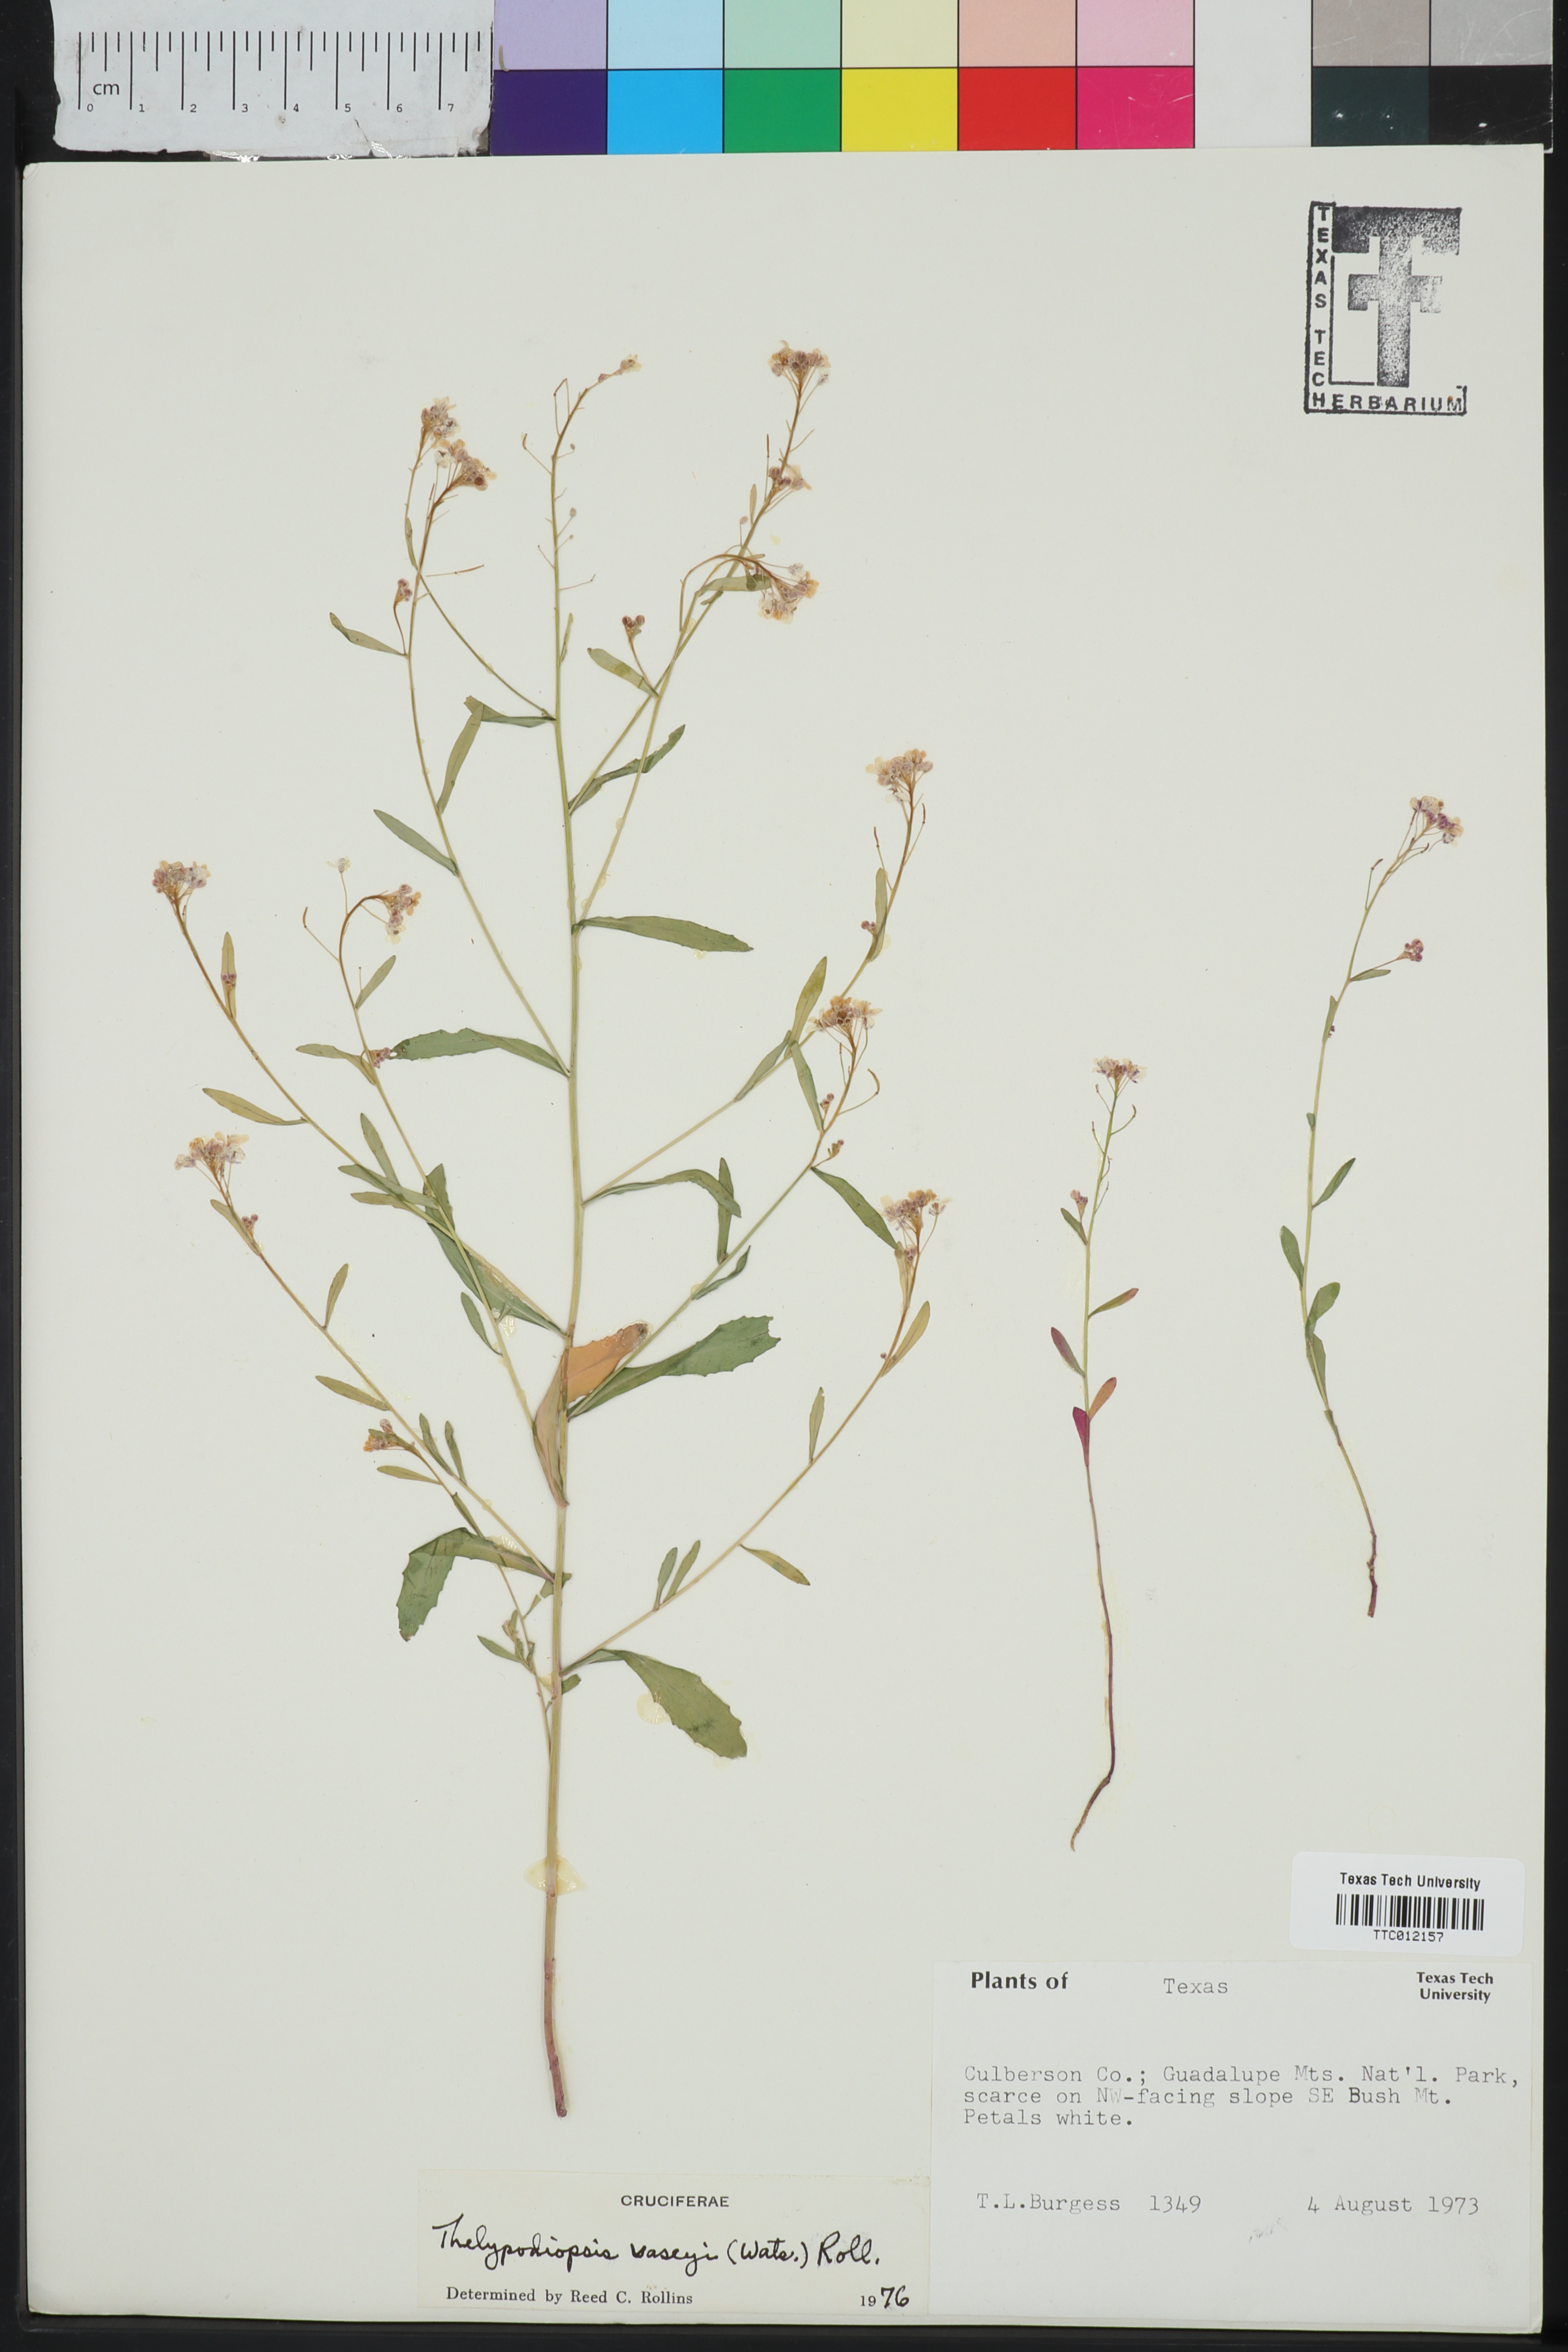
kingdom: Plantae
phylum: Tracheophyta
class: Magnoliopsida
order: Brassicales
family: Brassicaceae
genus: Mostacillastrum
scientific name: Mostacillastrum subauriculatum
